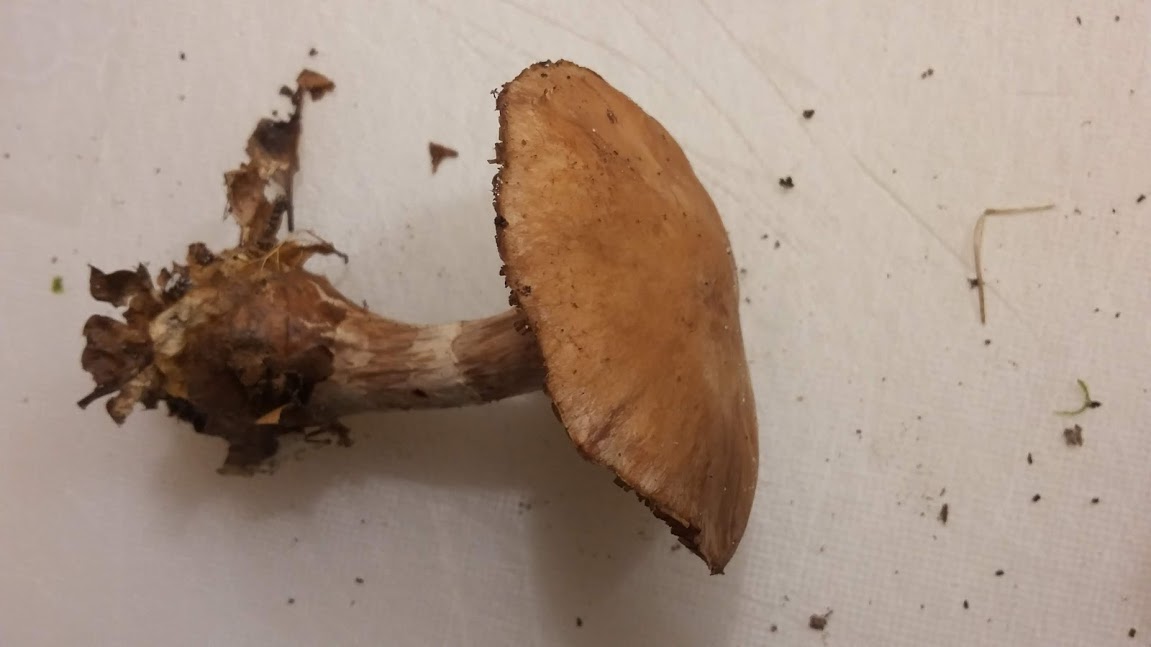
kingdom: Fungi
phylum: Basidiomycota
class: Agaricomycetes
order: Agaricales
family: Cortinariaceae
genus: Cortinarius
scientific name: Cortinarius
